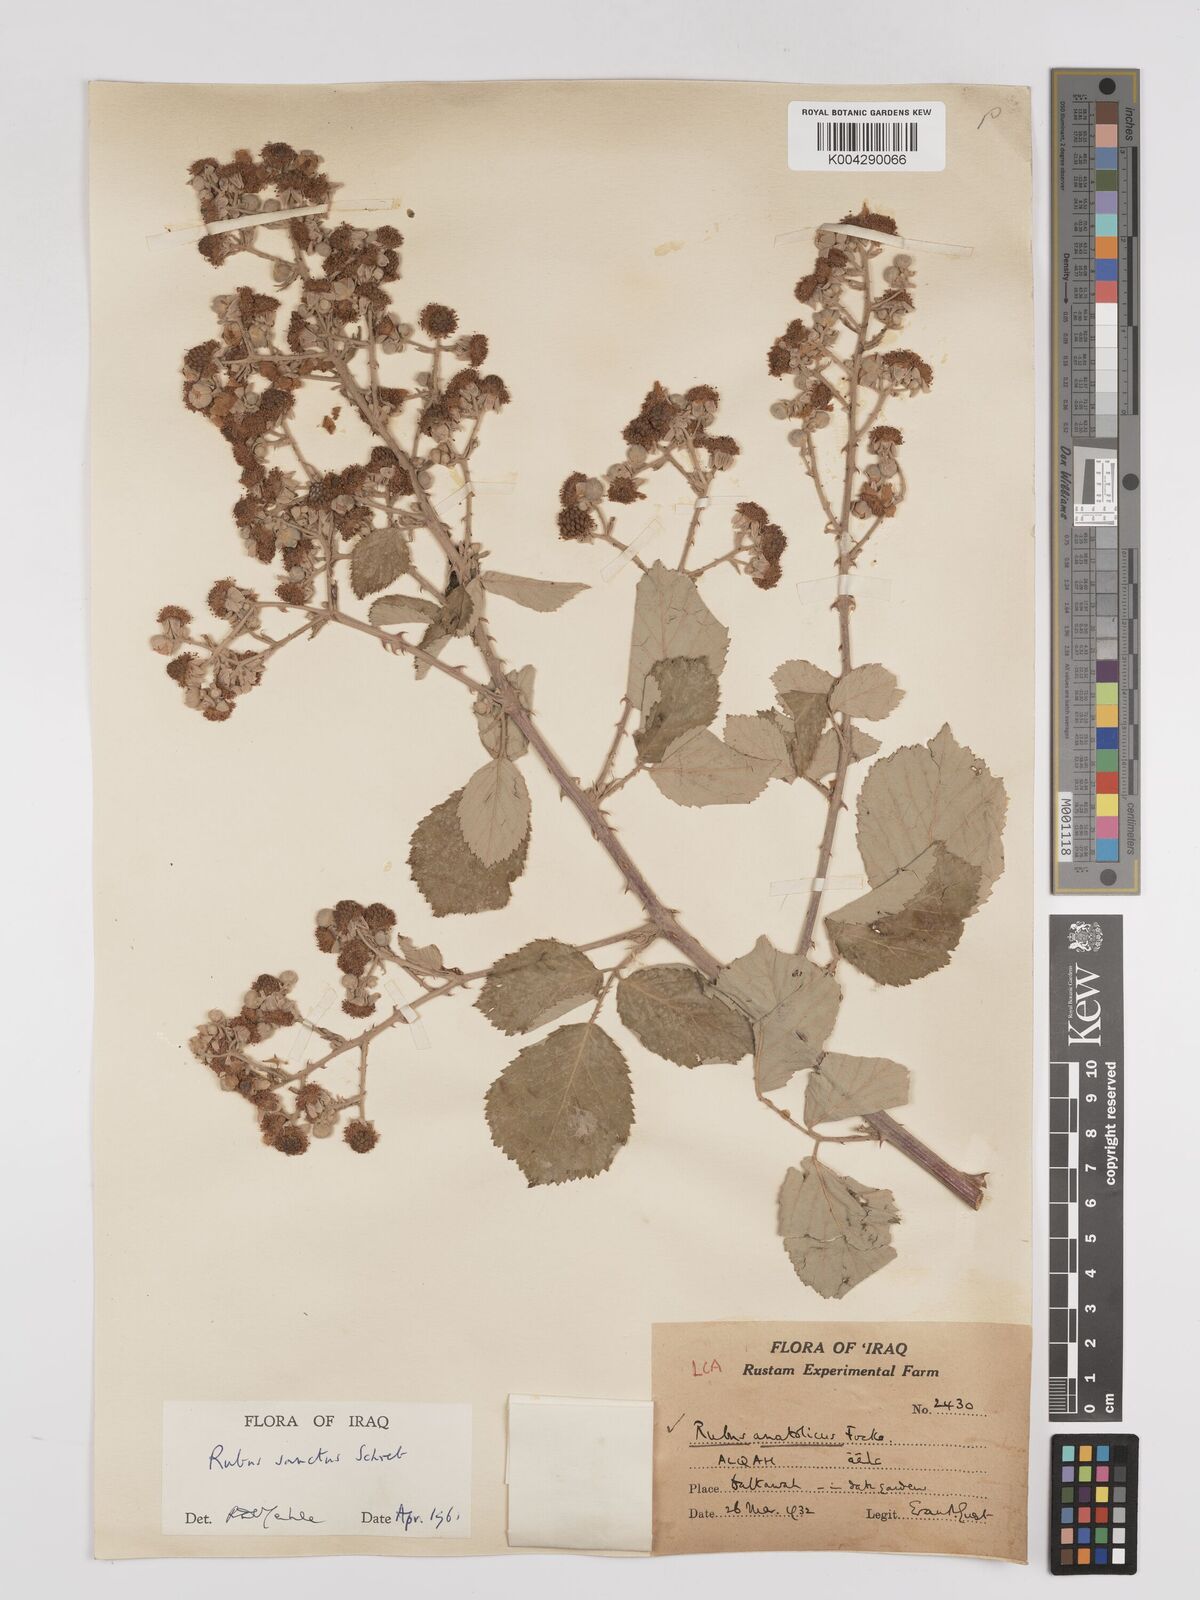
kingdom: Plantae
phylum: Tracheophyta
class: Magnoliopsida
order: Rosales
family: Rosaceae
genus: Rubus
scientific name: Rubus sanctus
